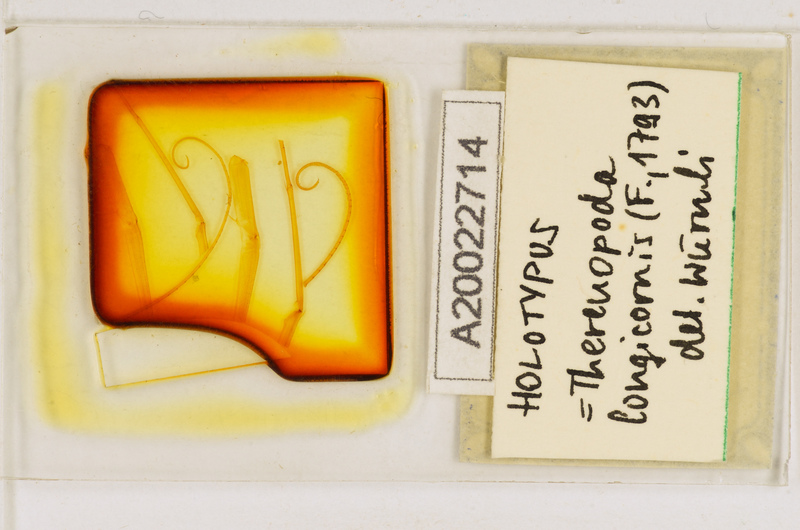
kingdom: Animalia
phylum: Arthropoda
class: Chilopoda
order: Scutigeromorpha
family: Scutigeridae
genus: Thereuopoda
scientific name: Thereuopoda longicornis
